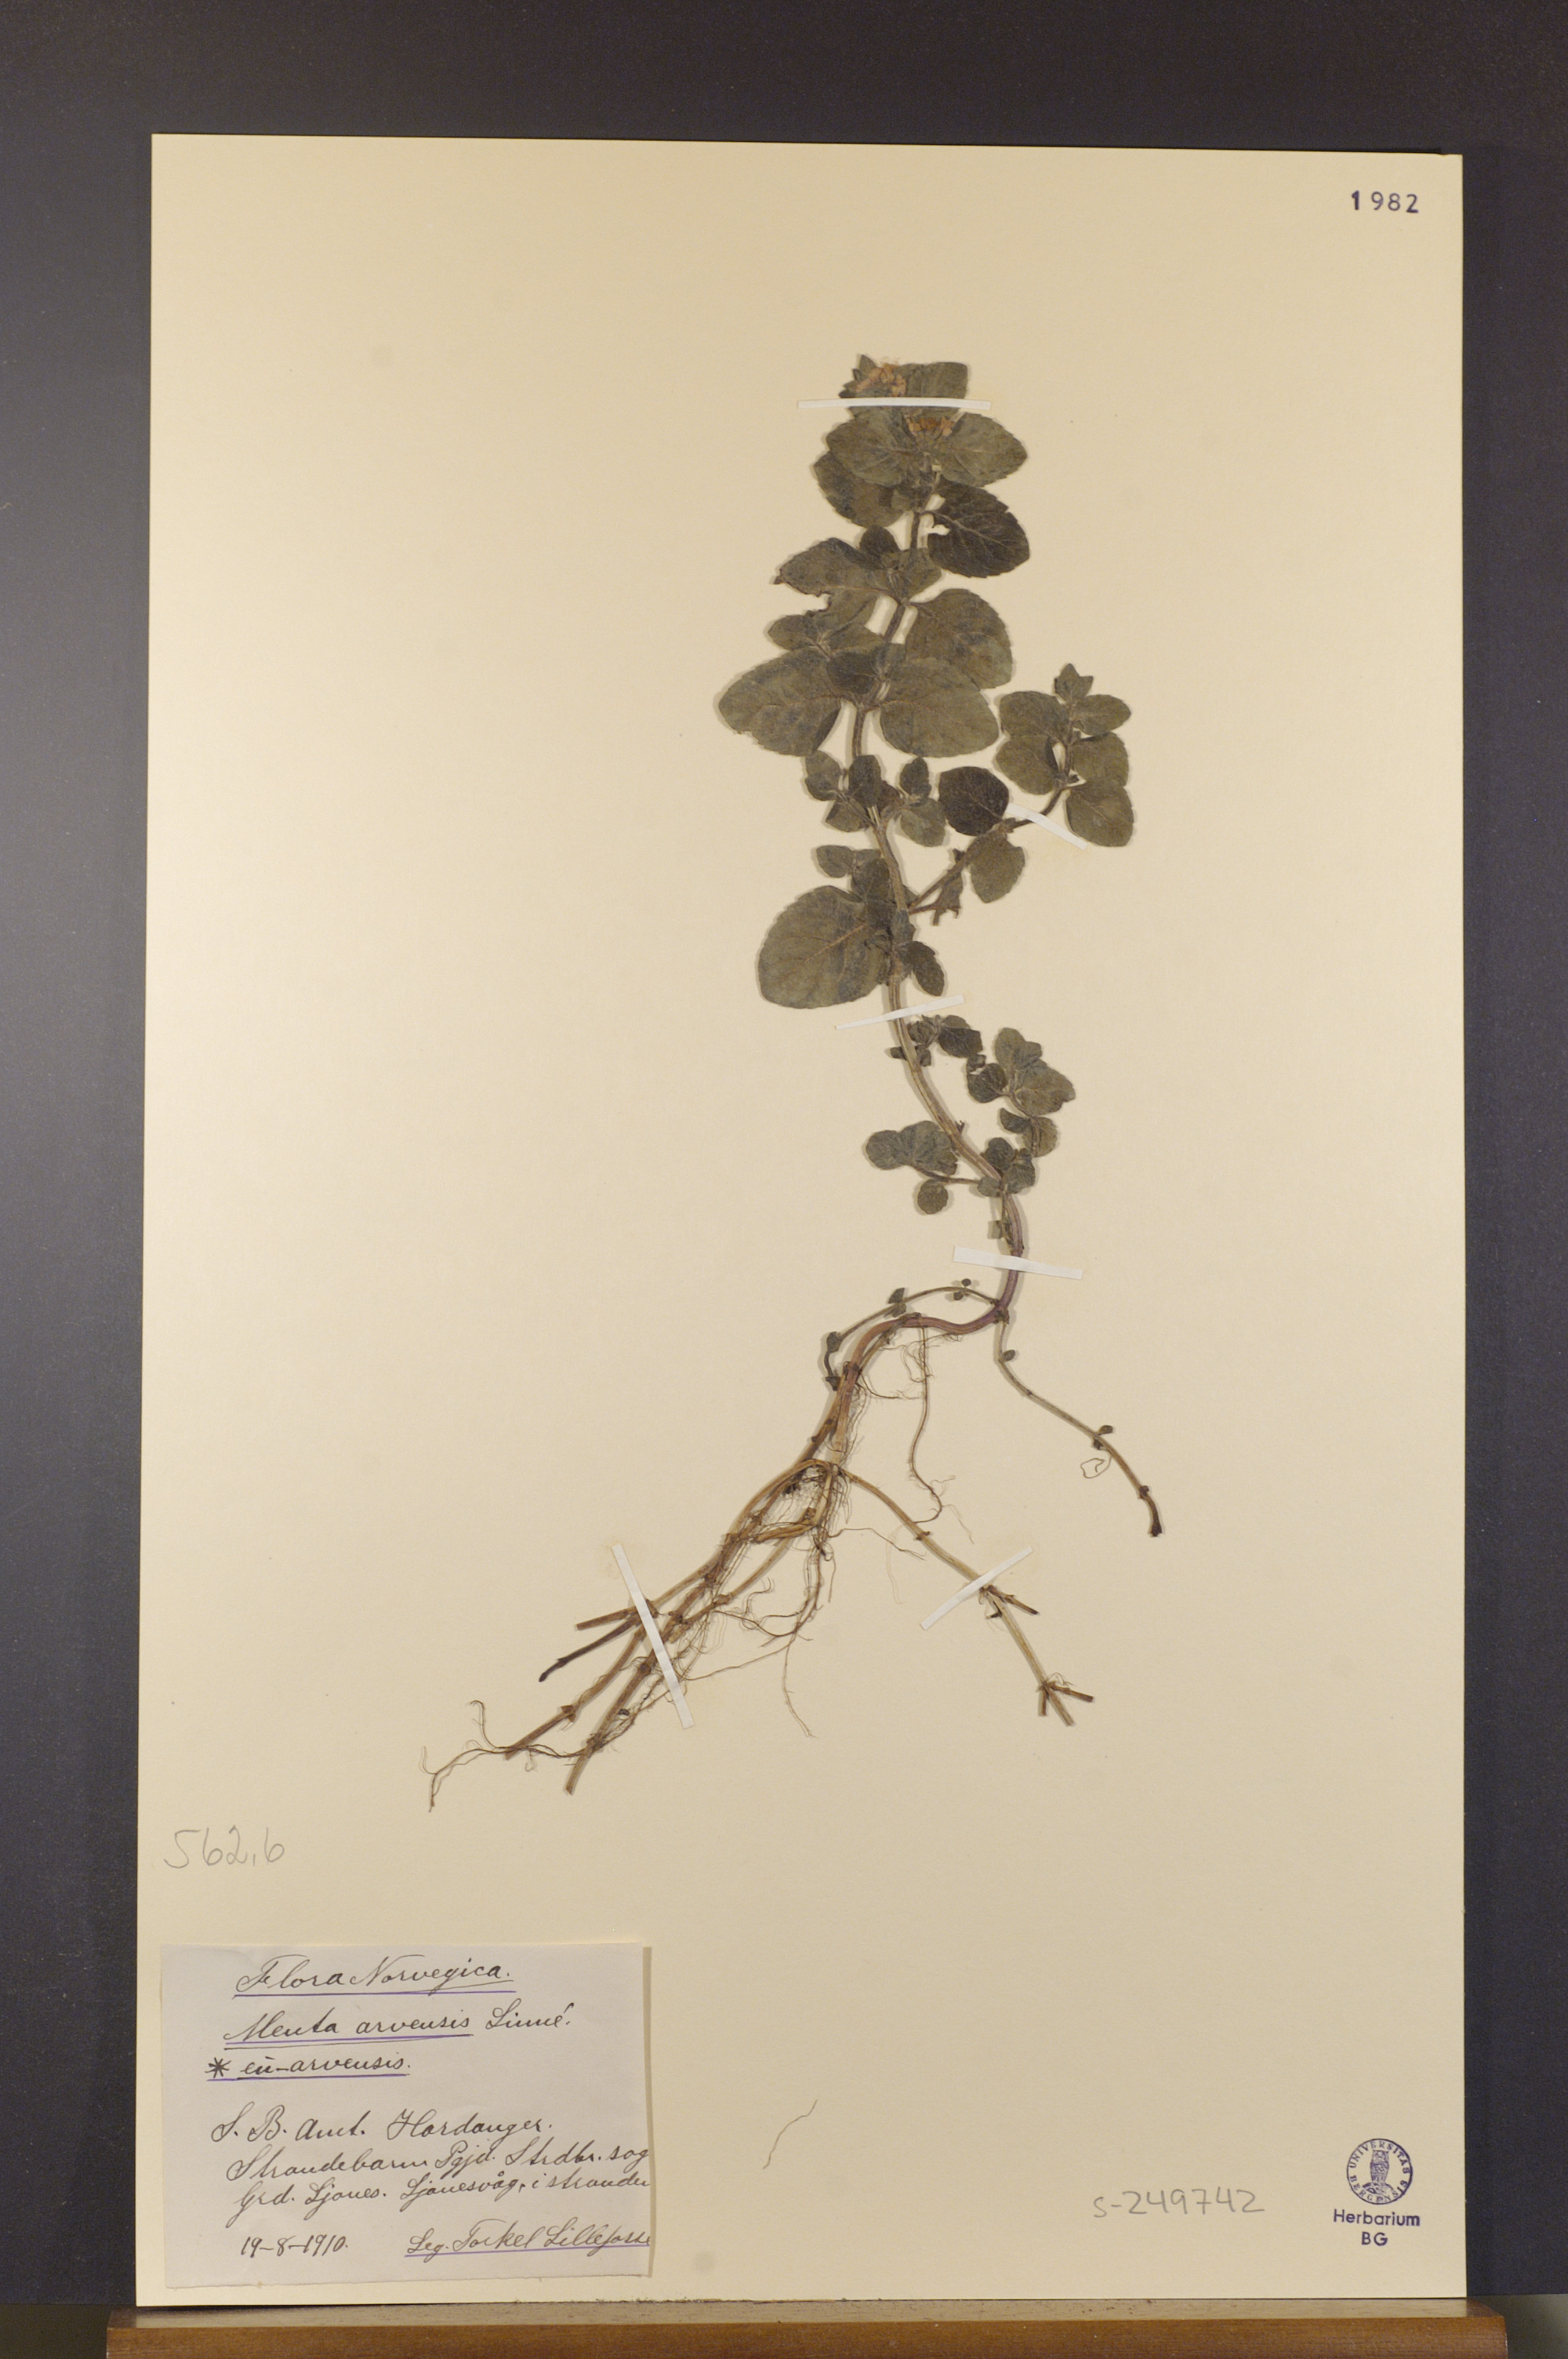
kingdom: Plantae
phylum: Tracheophyta
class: Magnoliopsida
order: Lamiales
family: Lamiaceae
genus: Mentha
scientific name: Mentha arvensis
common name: Corn mint
